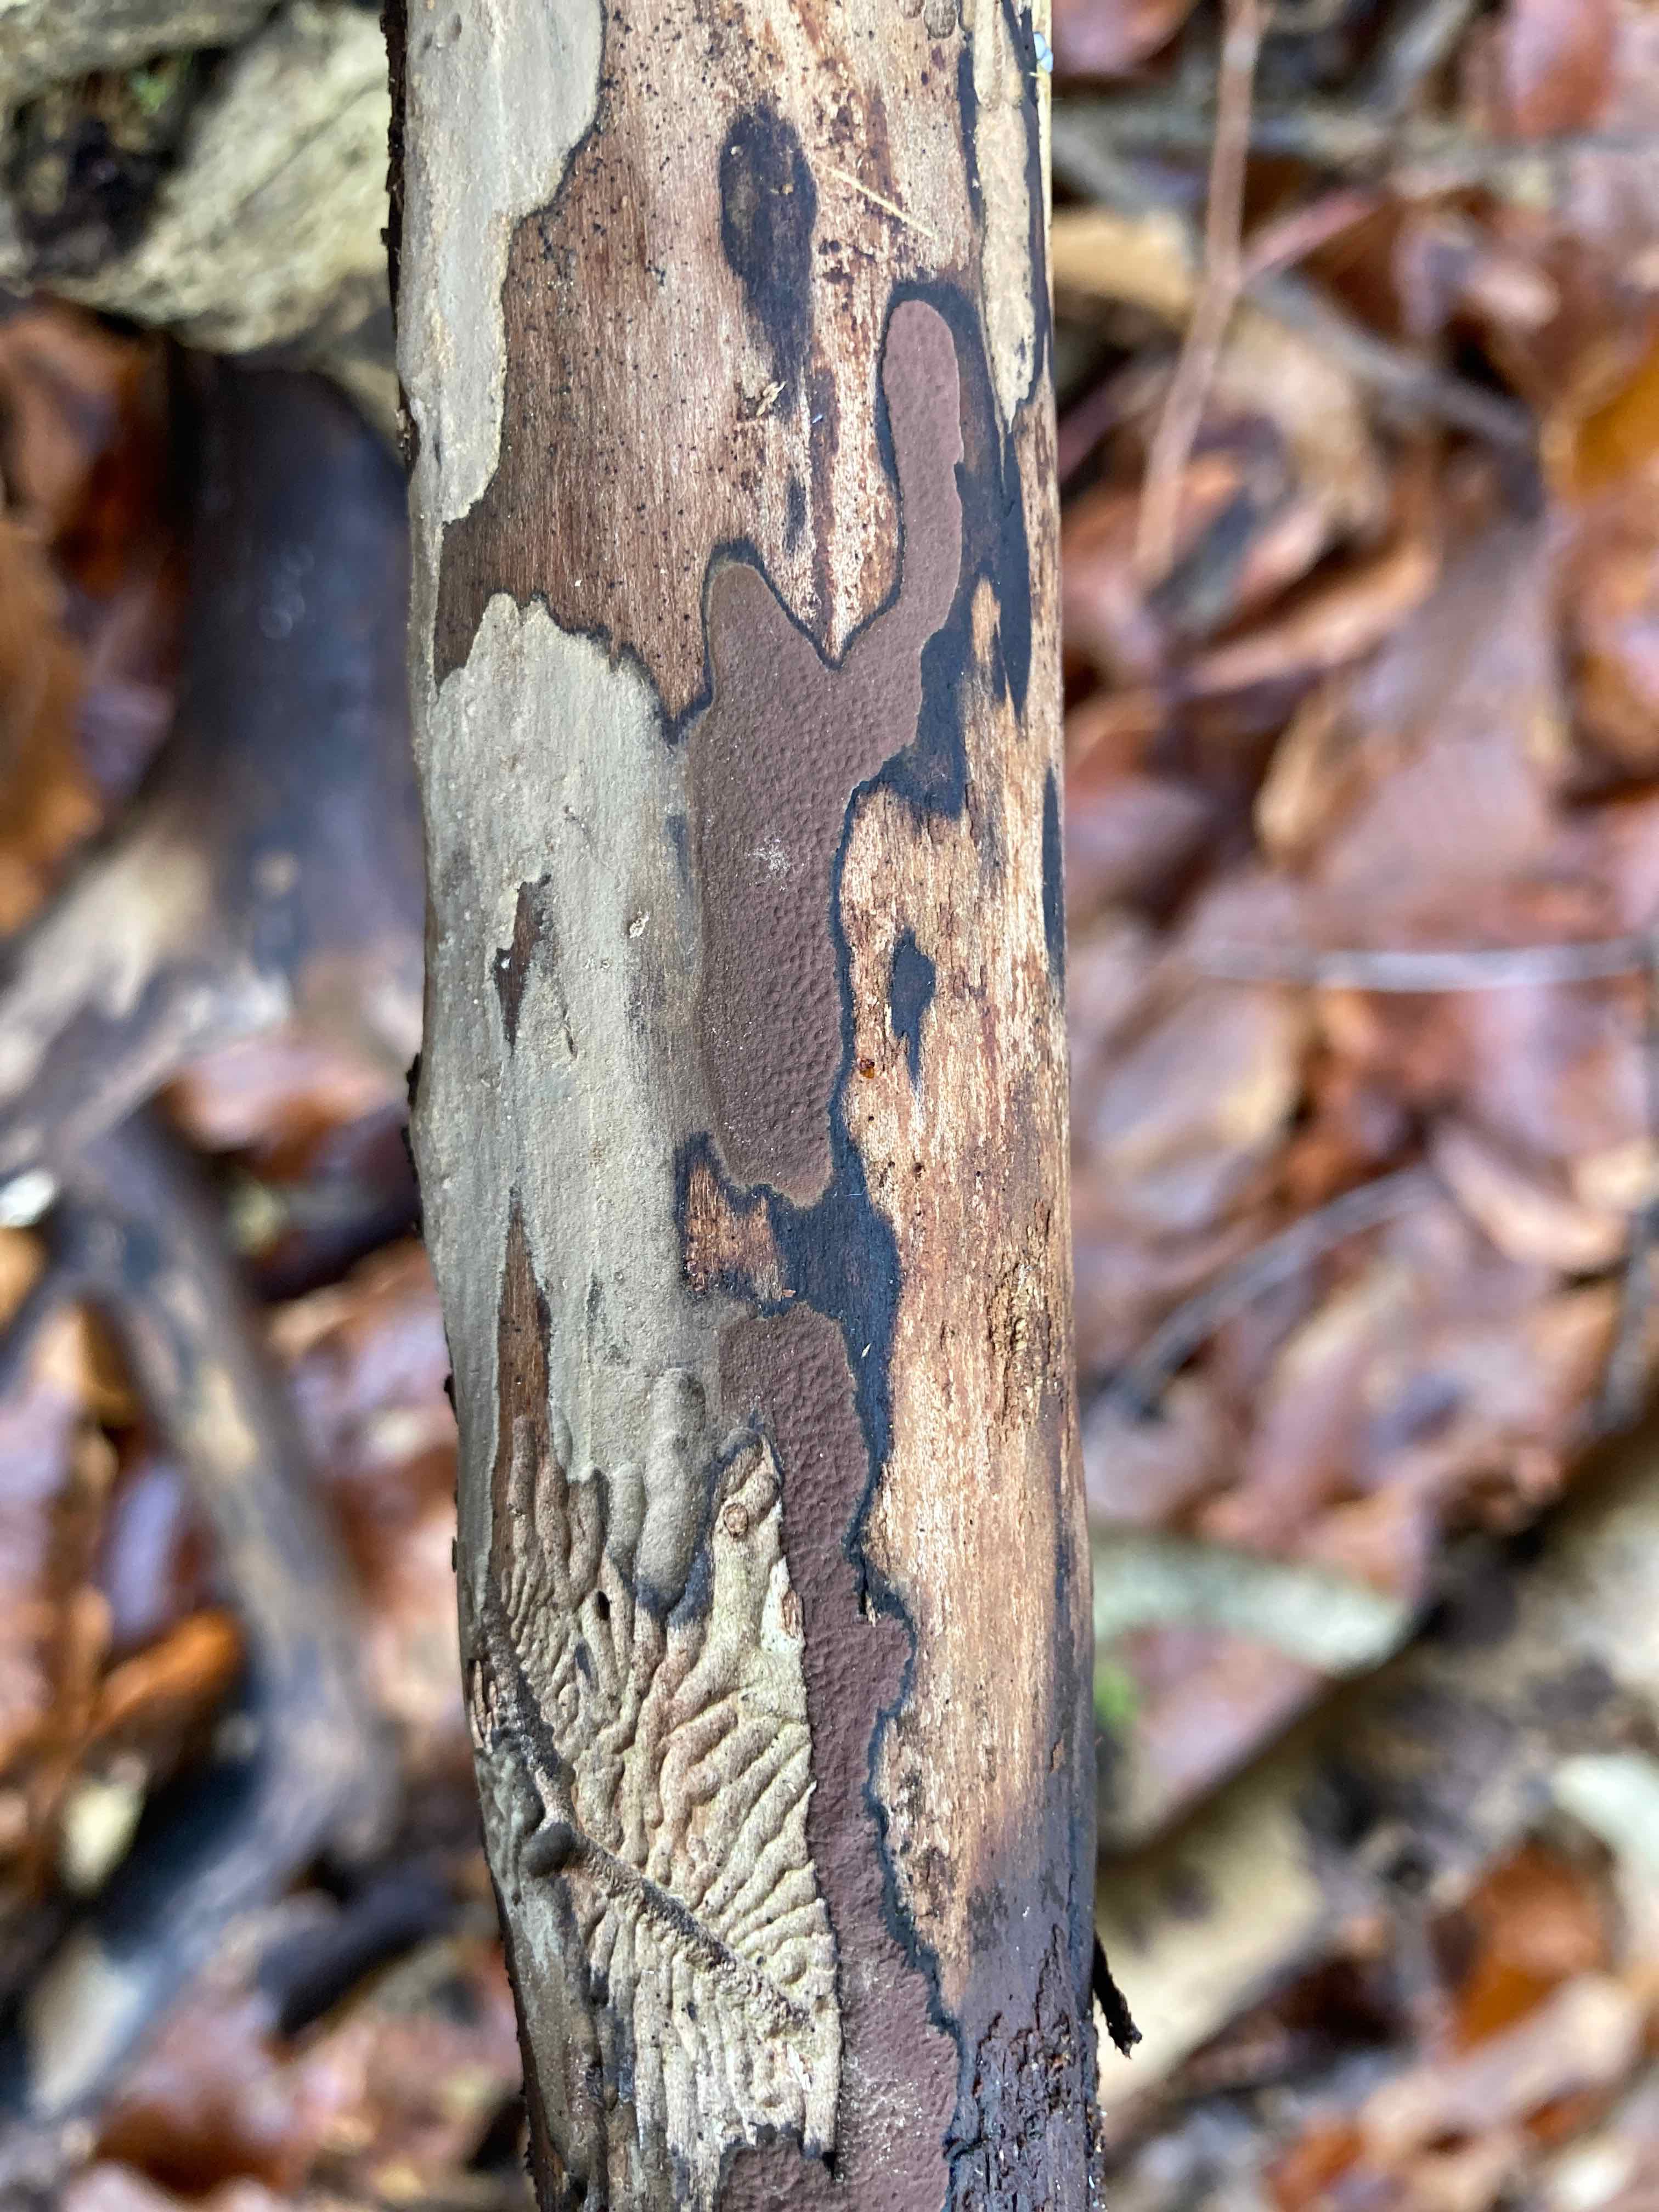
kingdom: Fungi
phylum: Ascomycota
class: Sordariomycetes
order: Xylariales
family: Hypoxylaceae
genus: Hypoxylon
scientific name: Hypoxylon petriniae
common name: nedsænket kulbær
